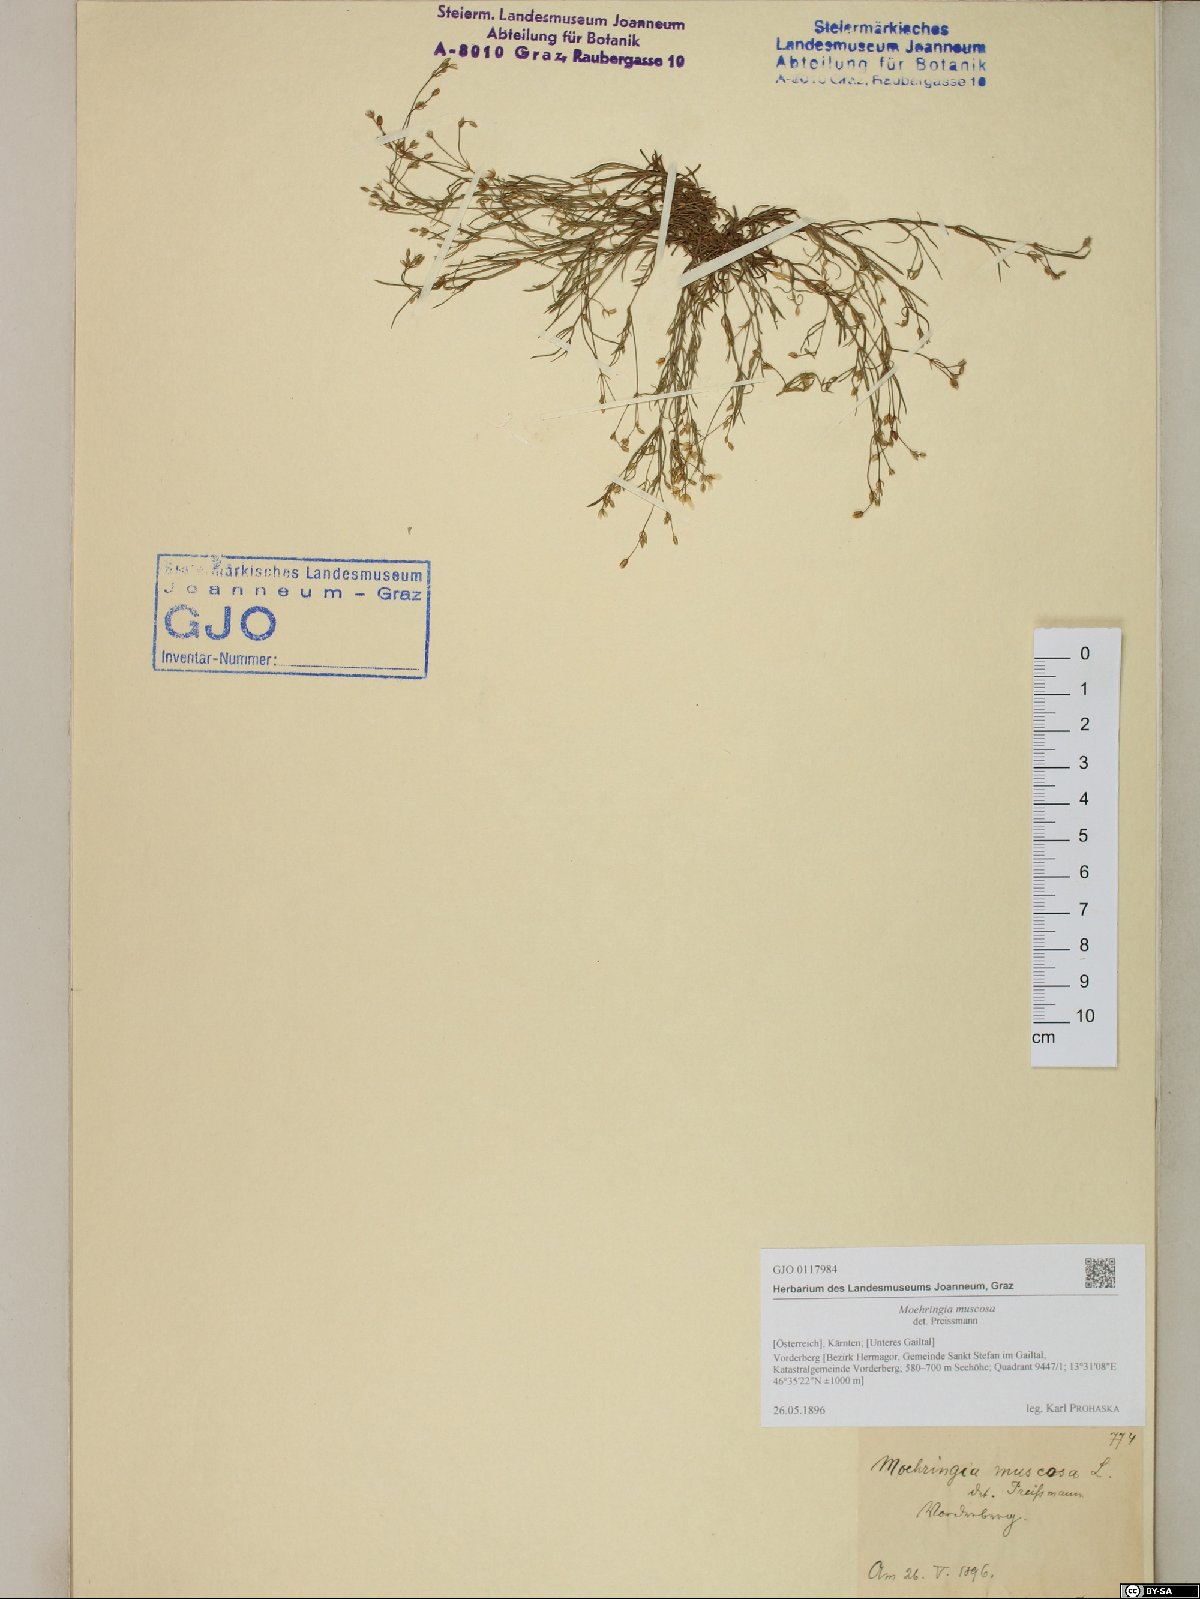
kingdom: Plantae
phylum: Tracheophyta
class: Magnoliopsida
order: Caryophyllales
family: Caryophyllaceae
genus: Moehringia
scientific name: Moehringia muscosa
